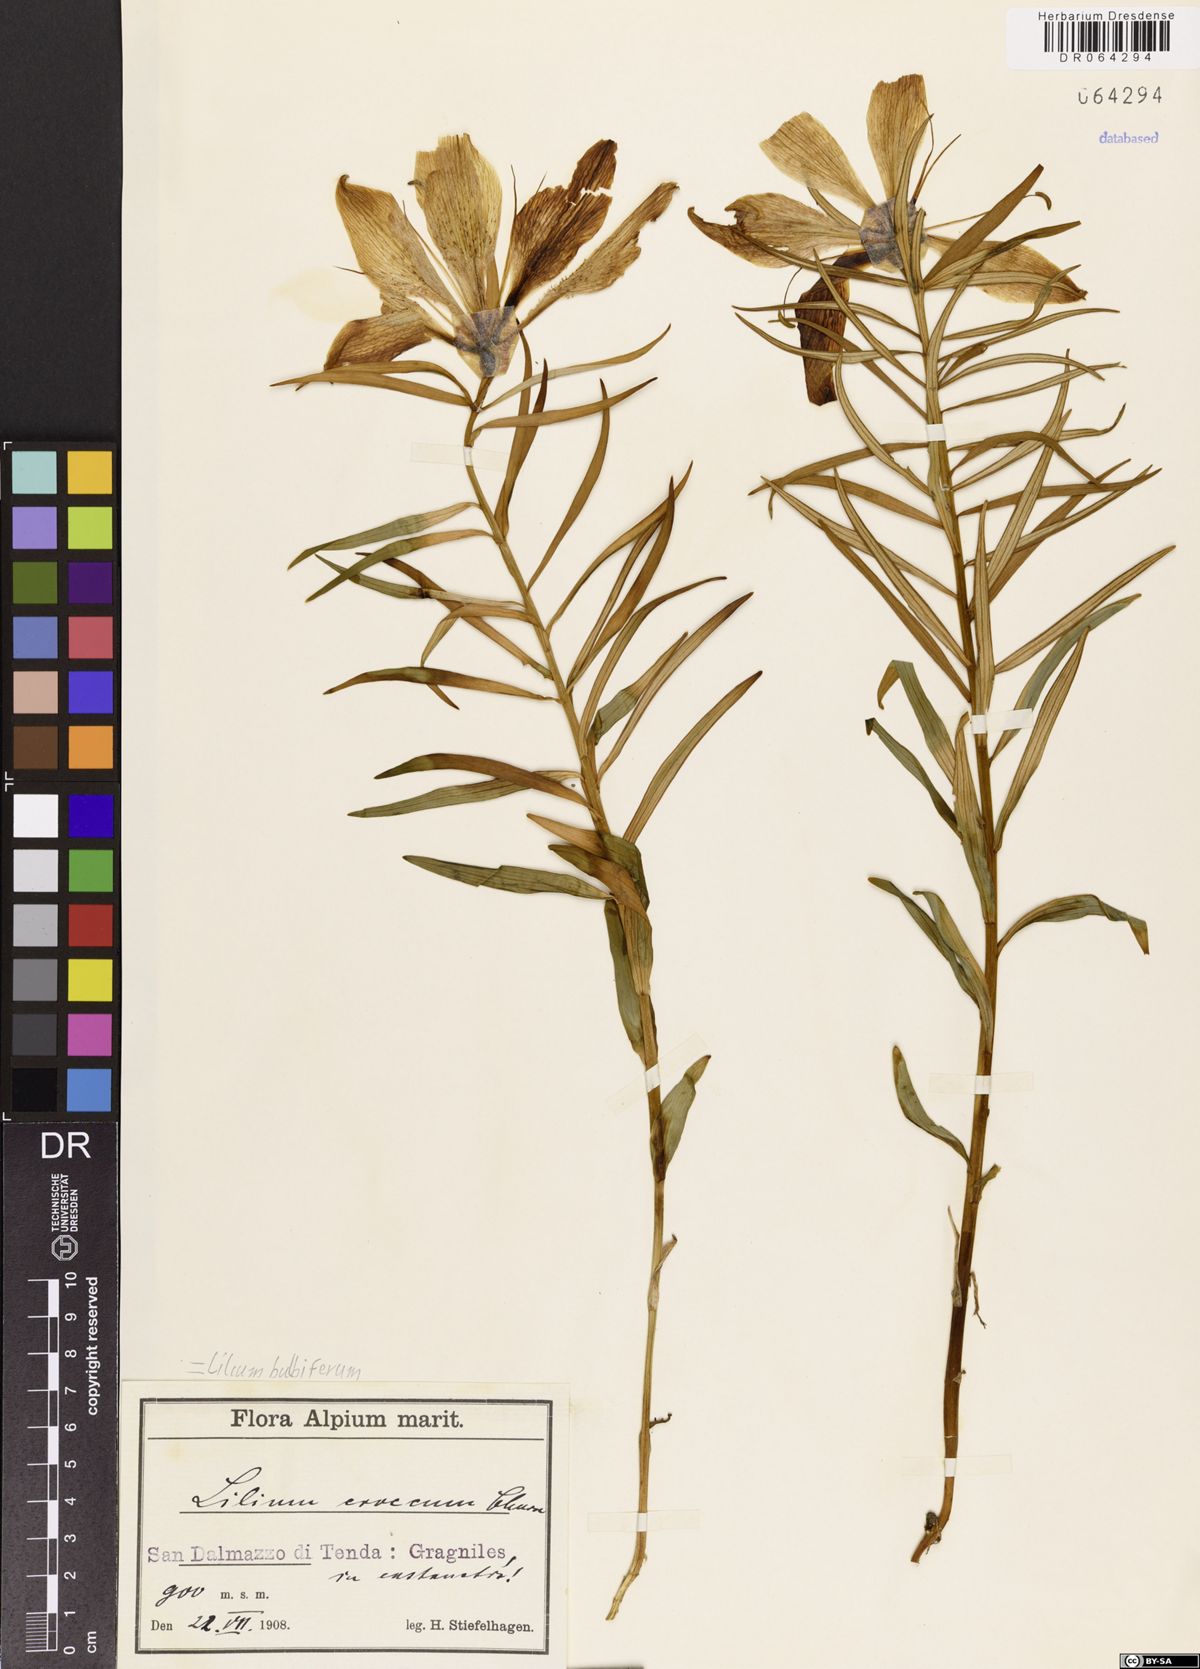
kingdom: Plantae
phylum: Tracheophyta
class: Liliopsida
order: Liliales
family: Liliaceae
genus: Lilium
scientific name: Lilium bulbiferum
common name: Orange lily
